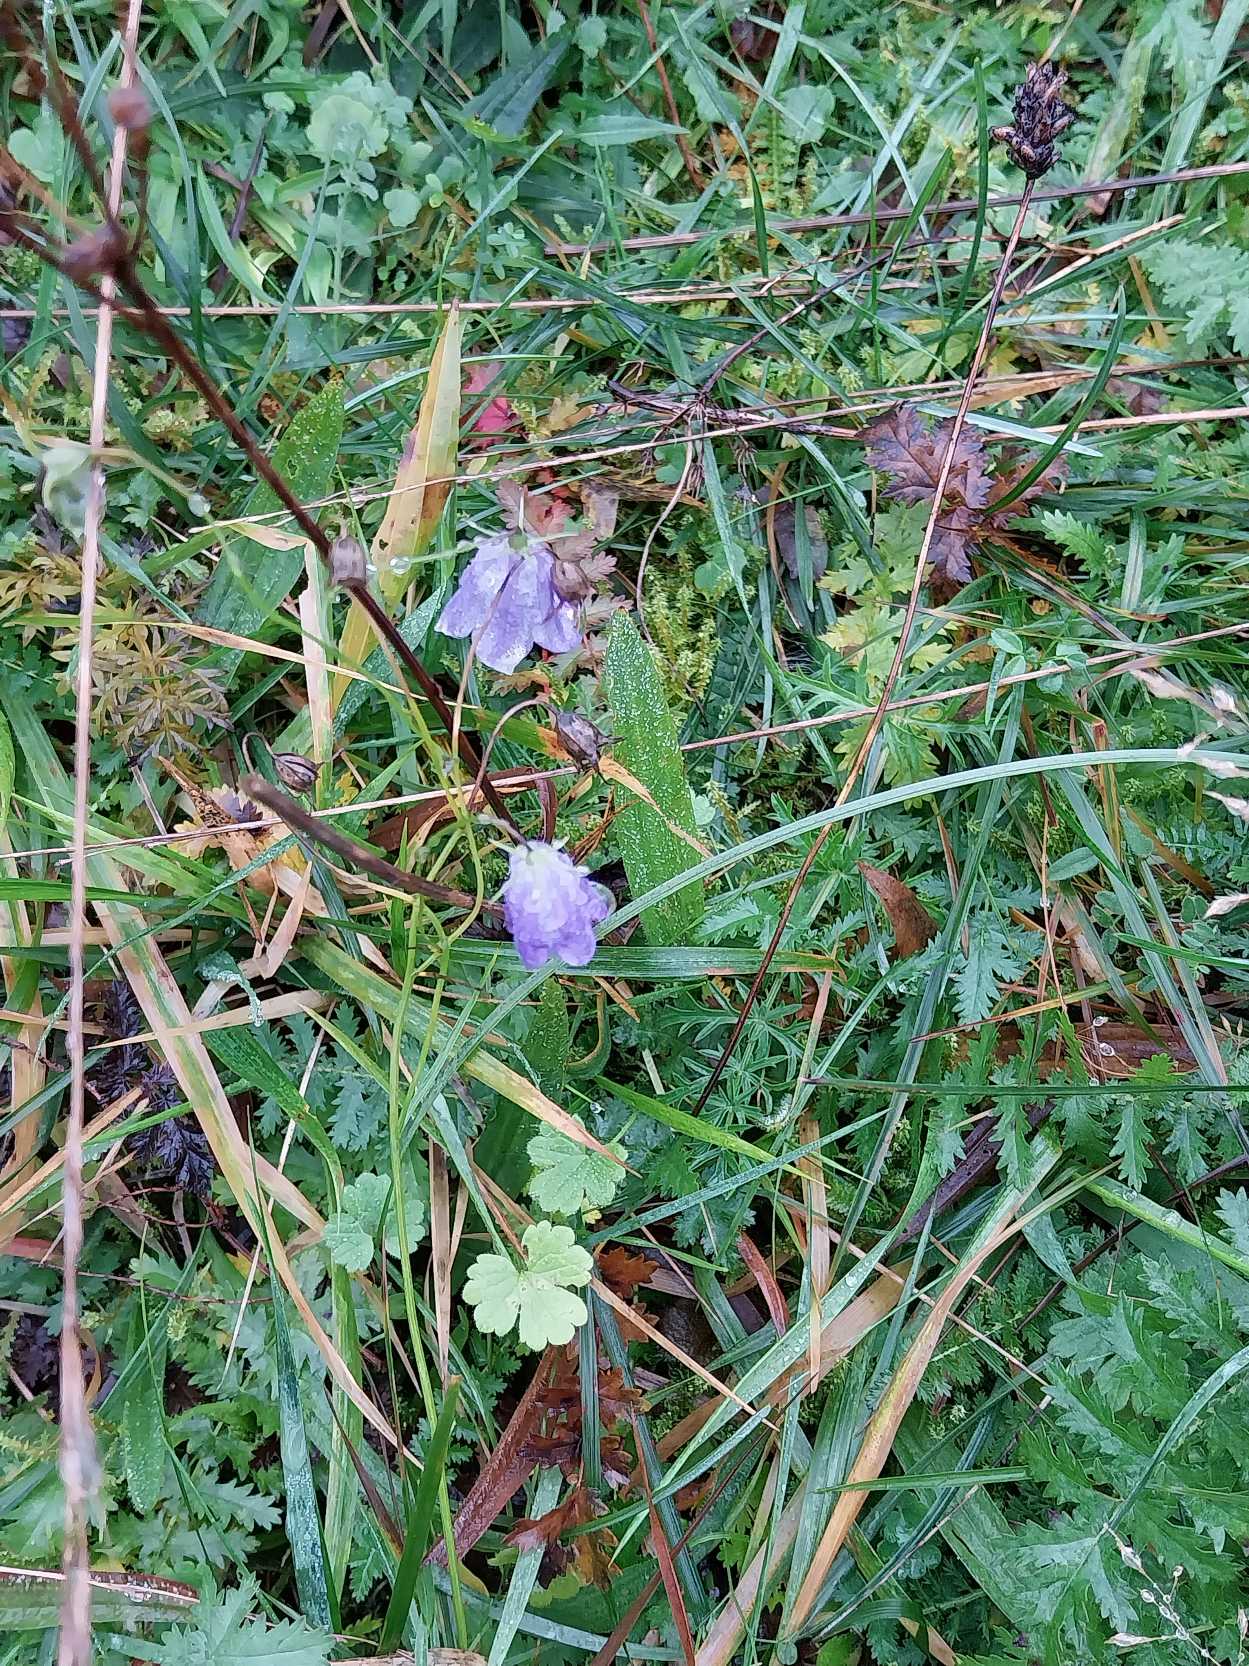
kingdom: Plantae
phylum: Tracheophyta
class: Magnoliopsida
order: Asterales
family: Campanulaceae
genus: Campanula
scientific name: Campanula rotundifolia
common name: Liden klokke
